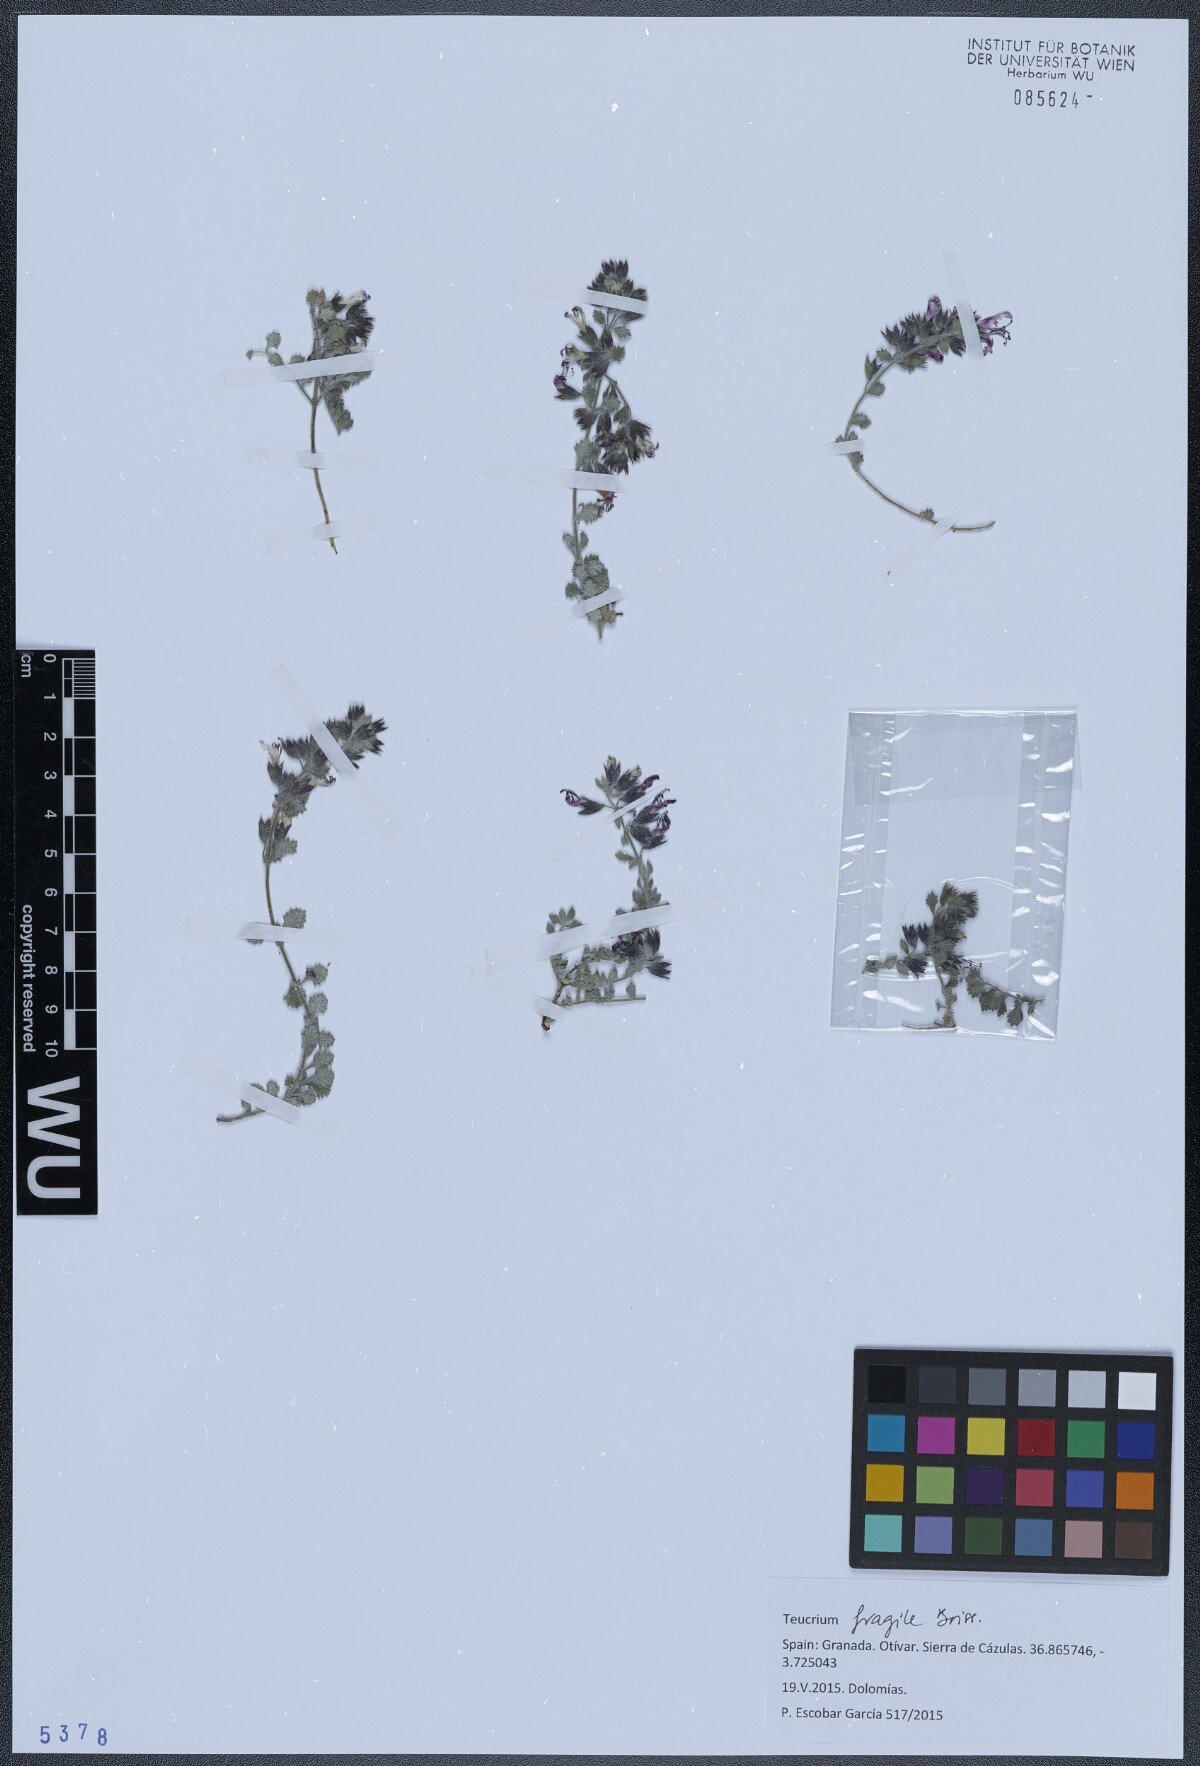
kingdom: Plantae
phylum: Tracheophyta
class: Magnoliopsida
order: Lamiales
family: Lamiaceae
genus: Teucrium
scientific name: Teucrium fragile
